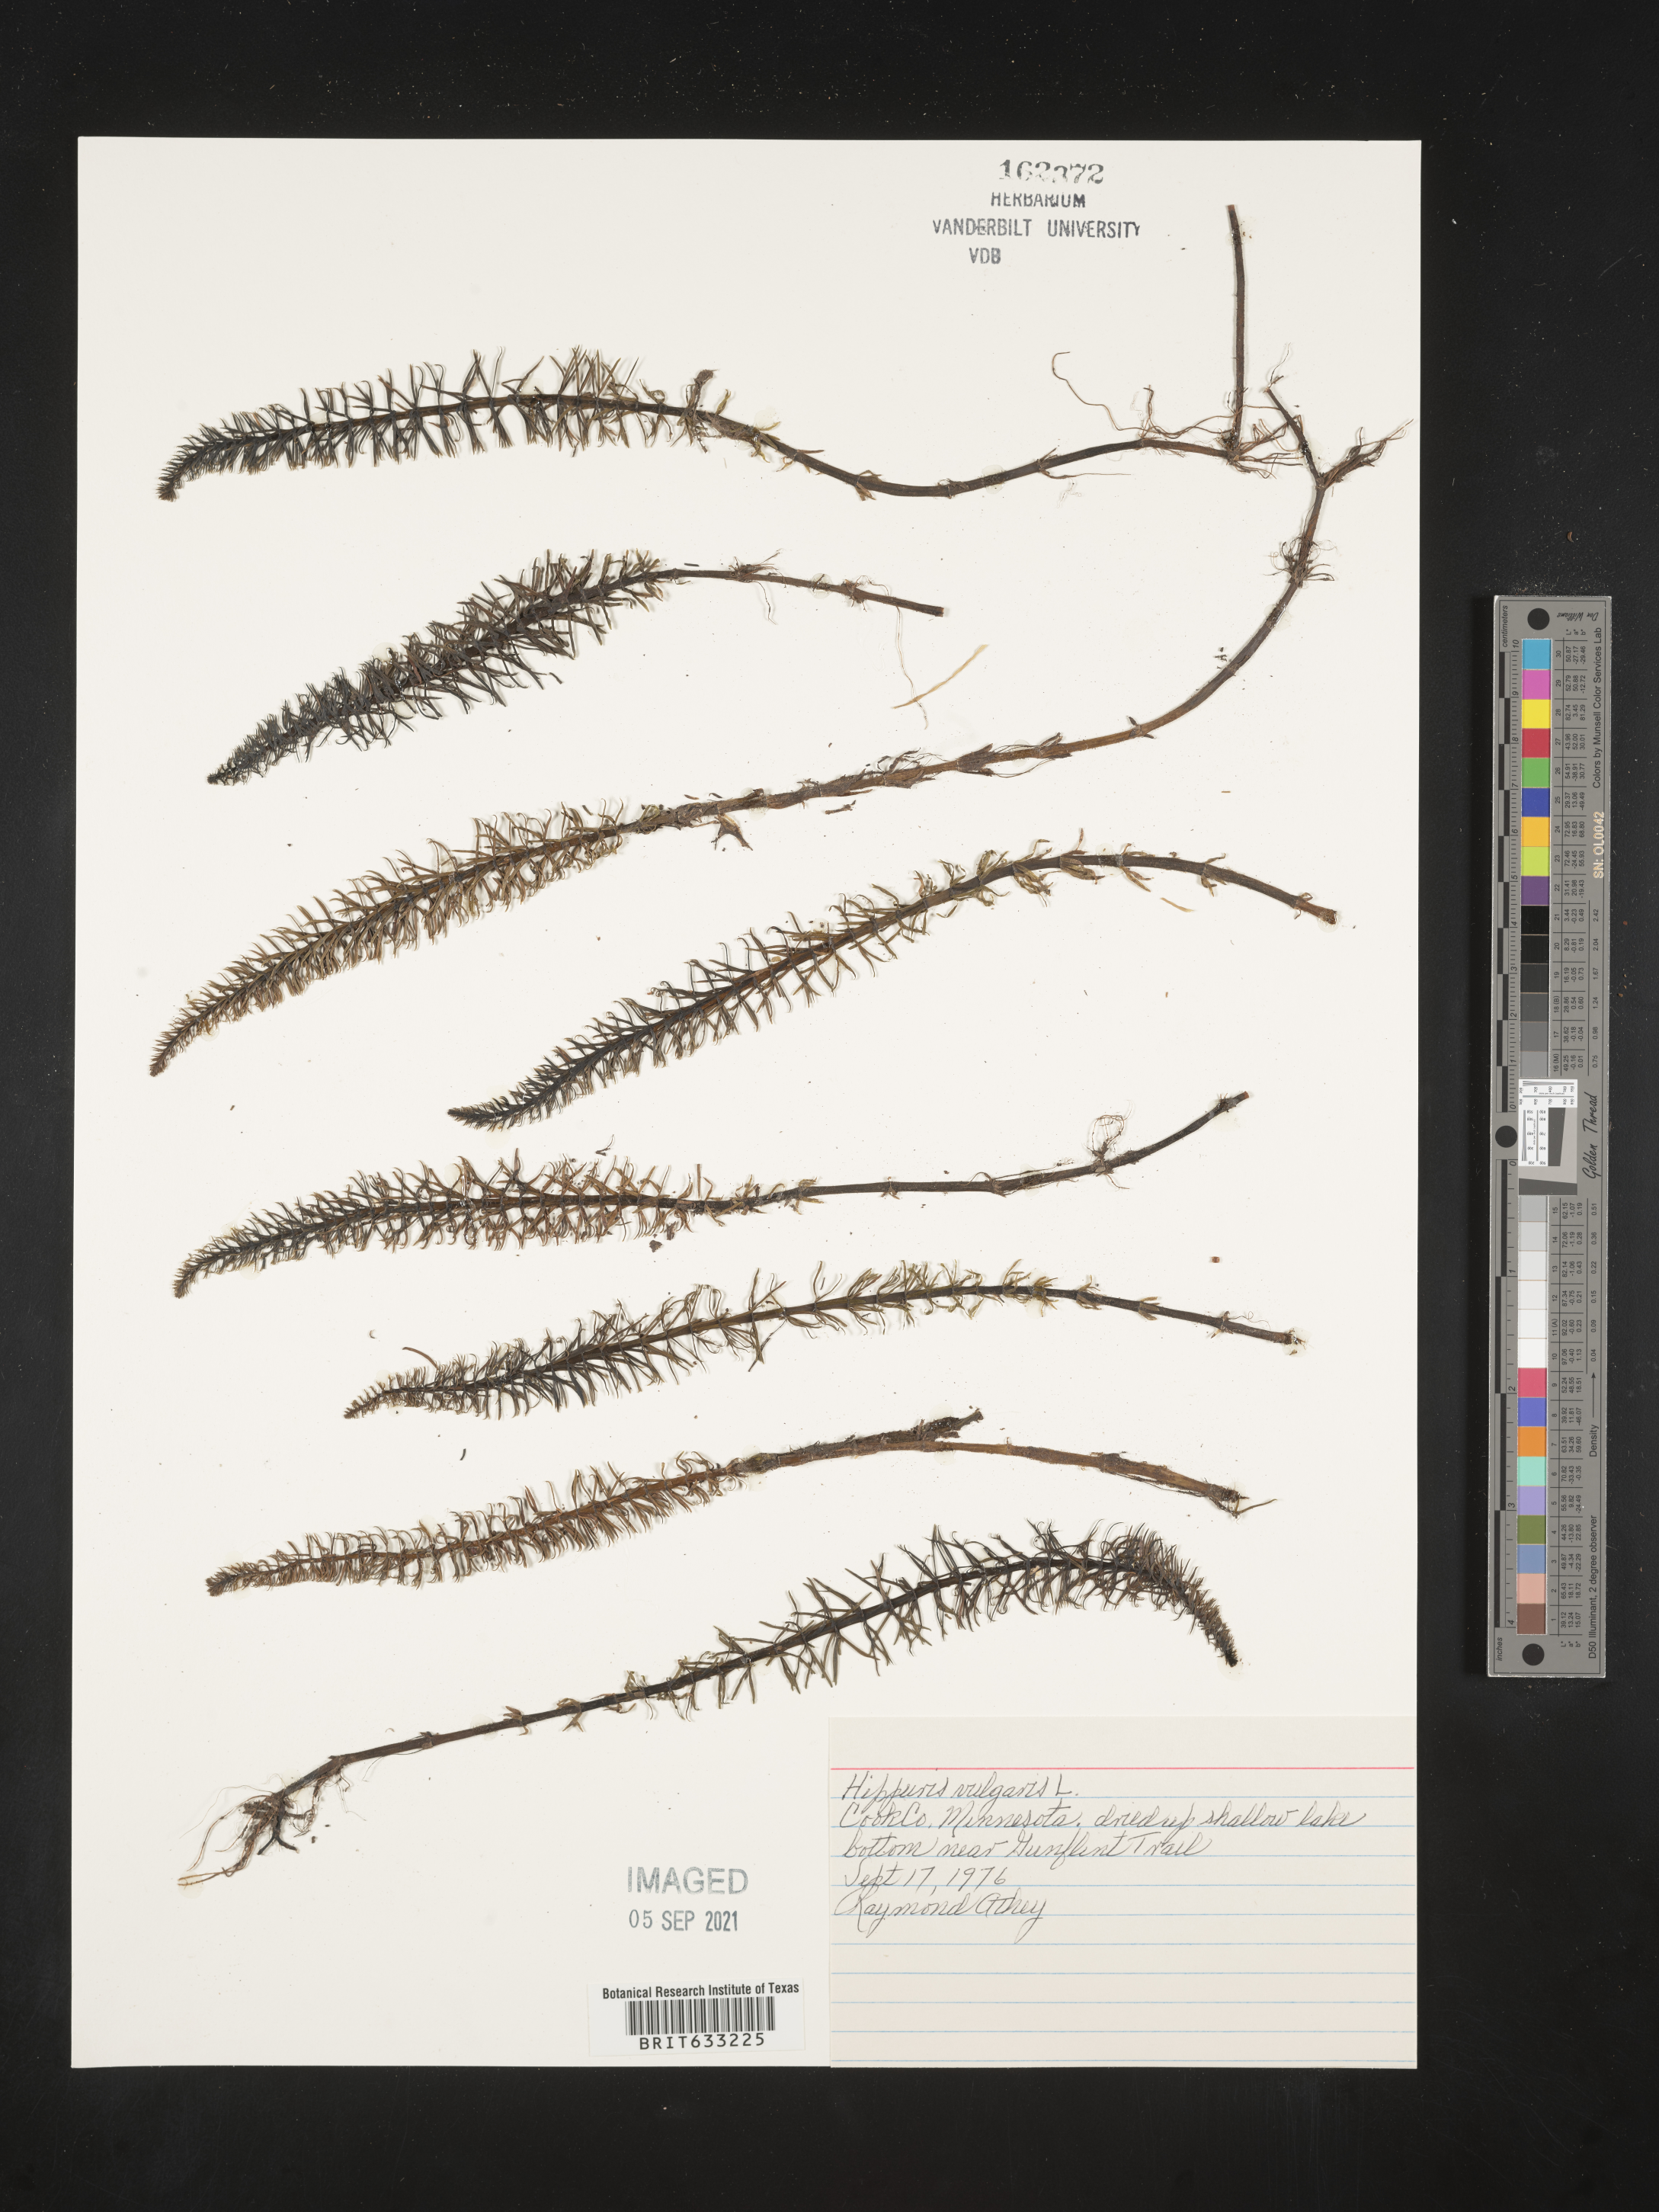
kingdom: Plantae
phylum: Tracheophyta
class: Magnoliopsida
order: Lamiales
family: Plantaginaceae
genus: Hippuris
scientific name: Hippuris vulgaris
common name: Mare's-tail
